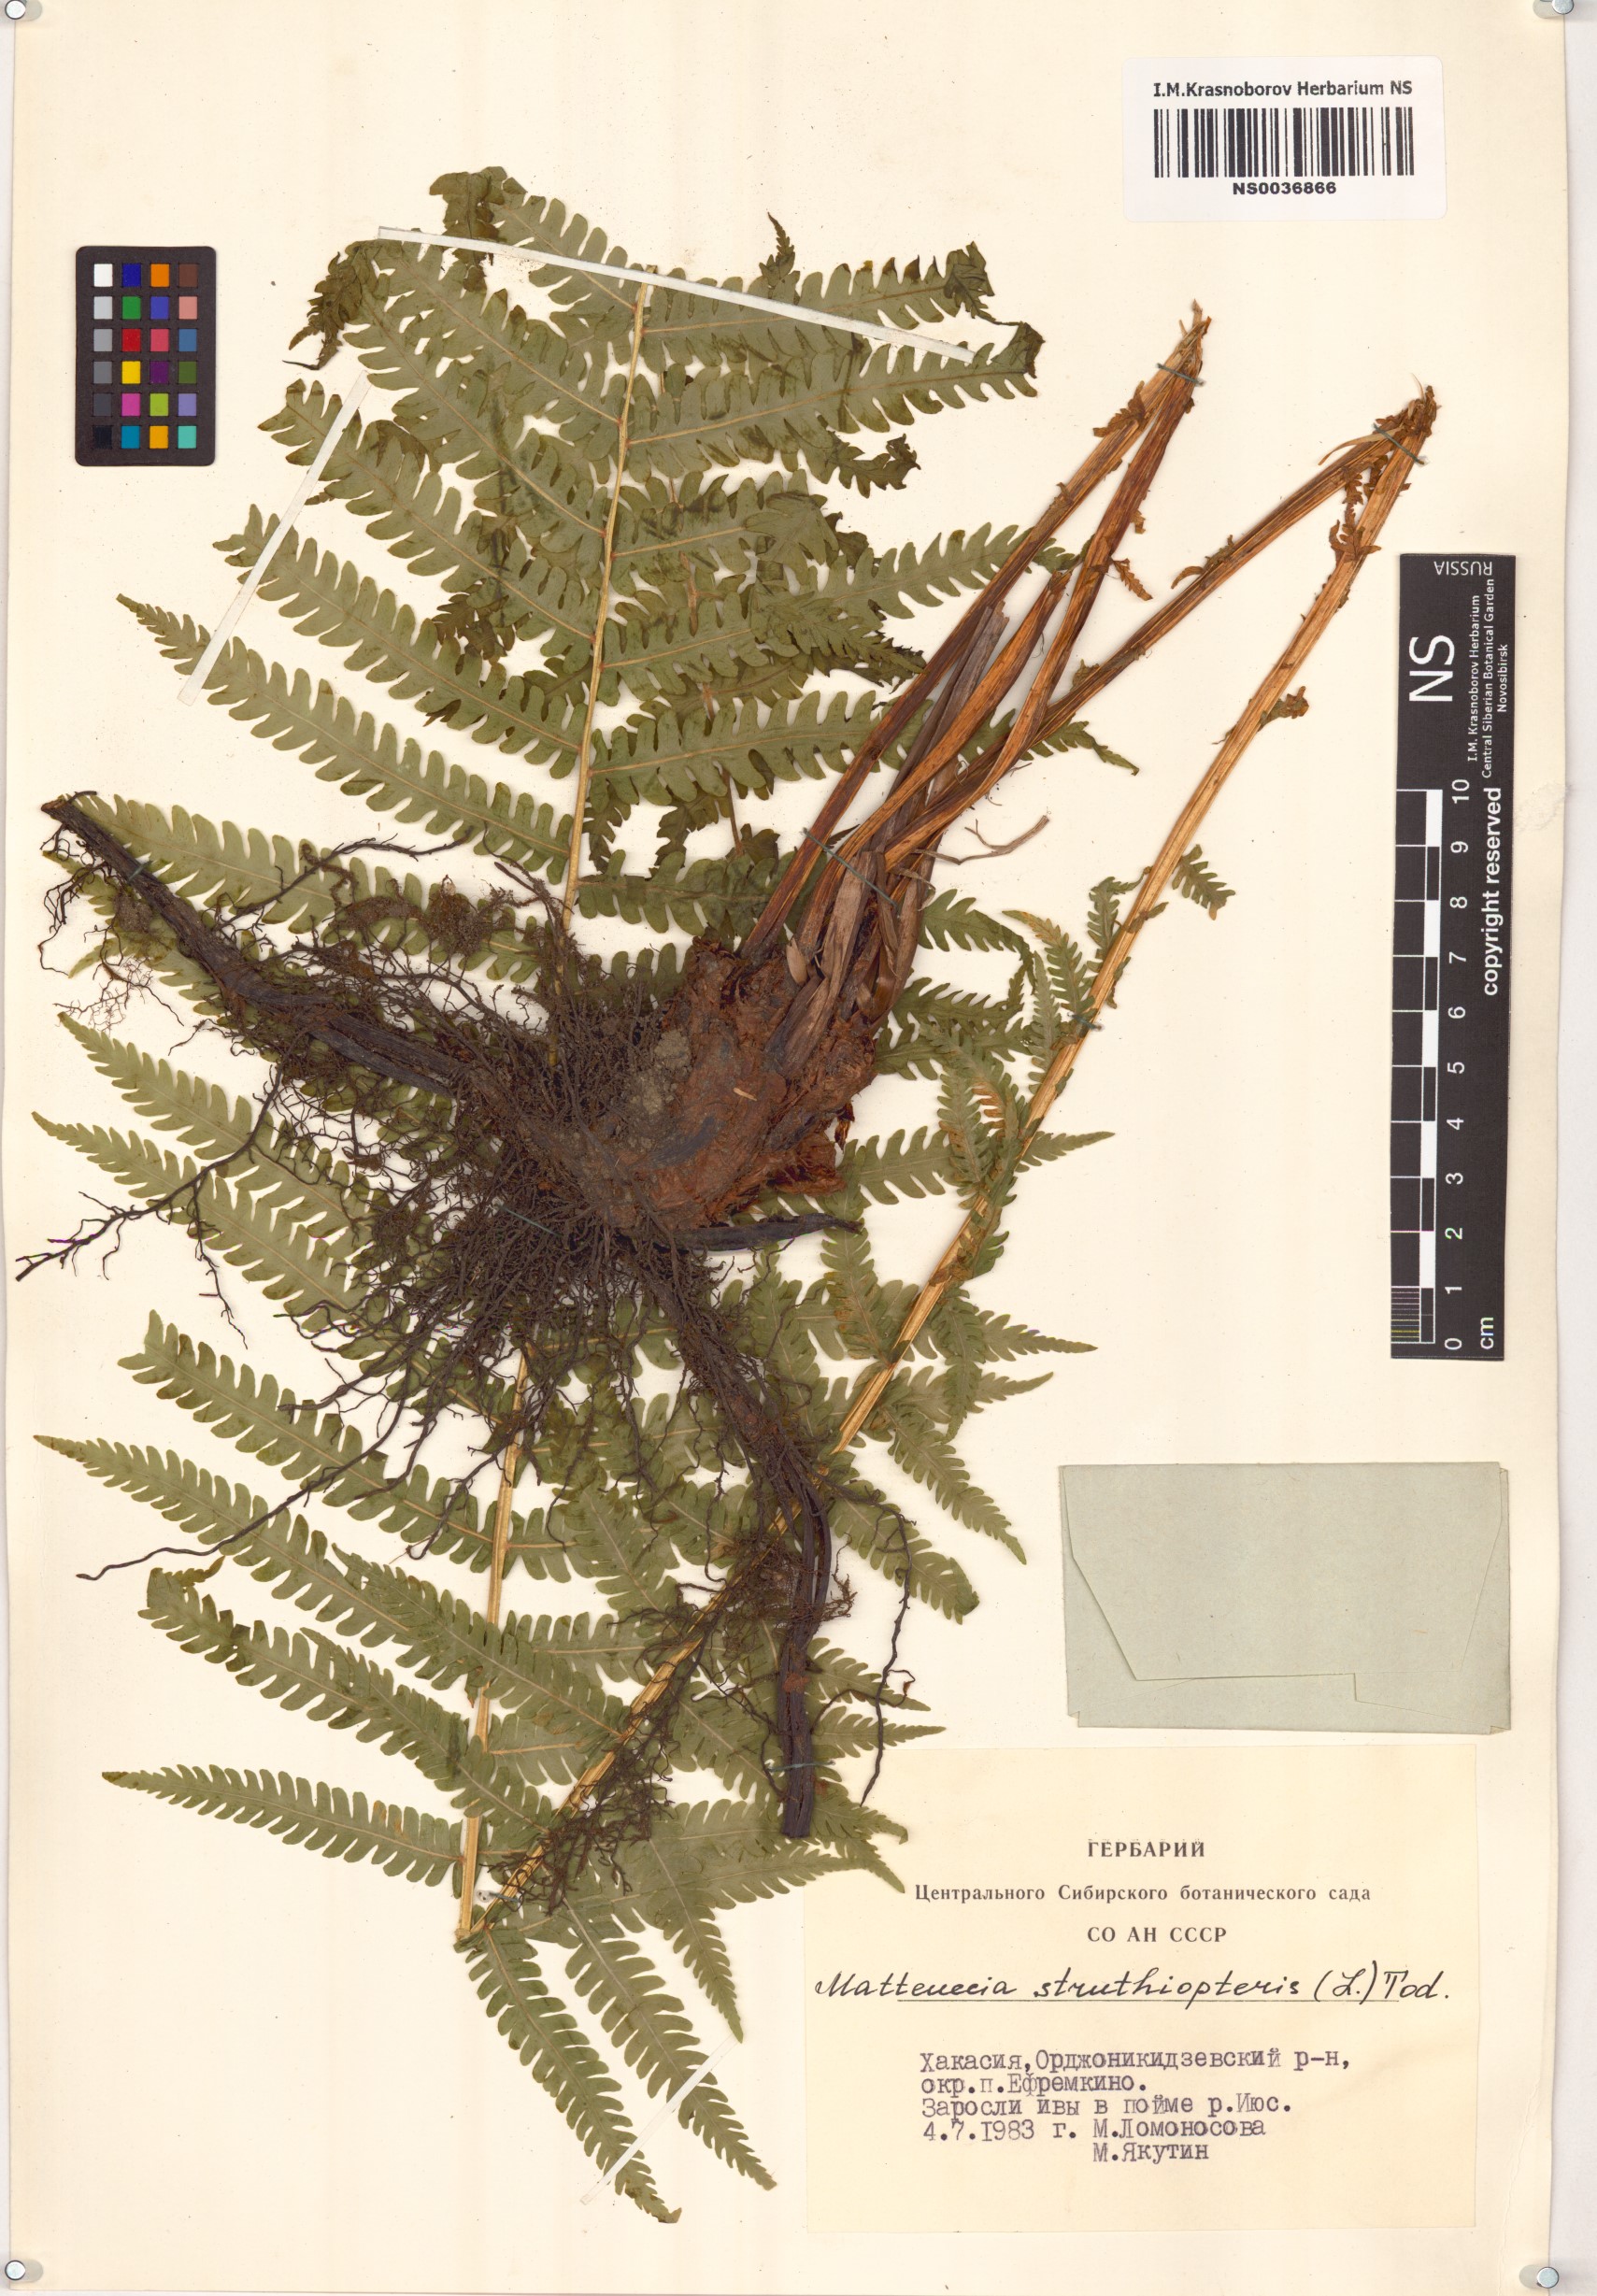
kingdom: Plantae
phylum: Tracheophyta
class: Polypodiopsida
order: Polypodiales
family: Onocleaceae
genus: Matteuccia
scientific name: Matteuccia struthiopteris
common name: Ostrich fern
